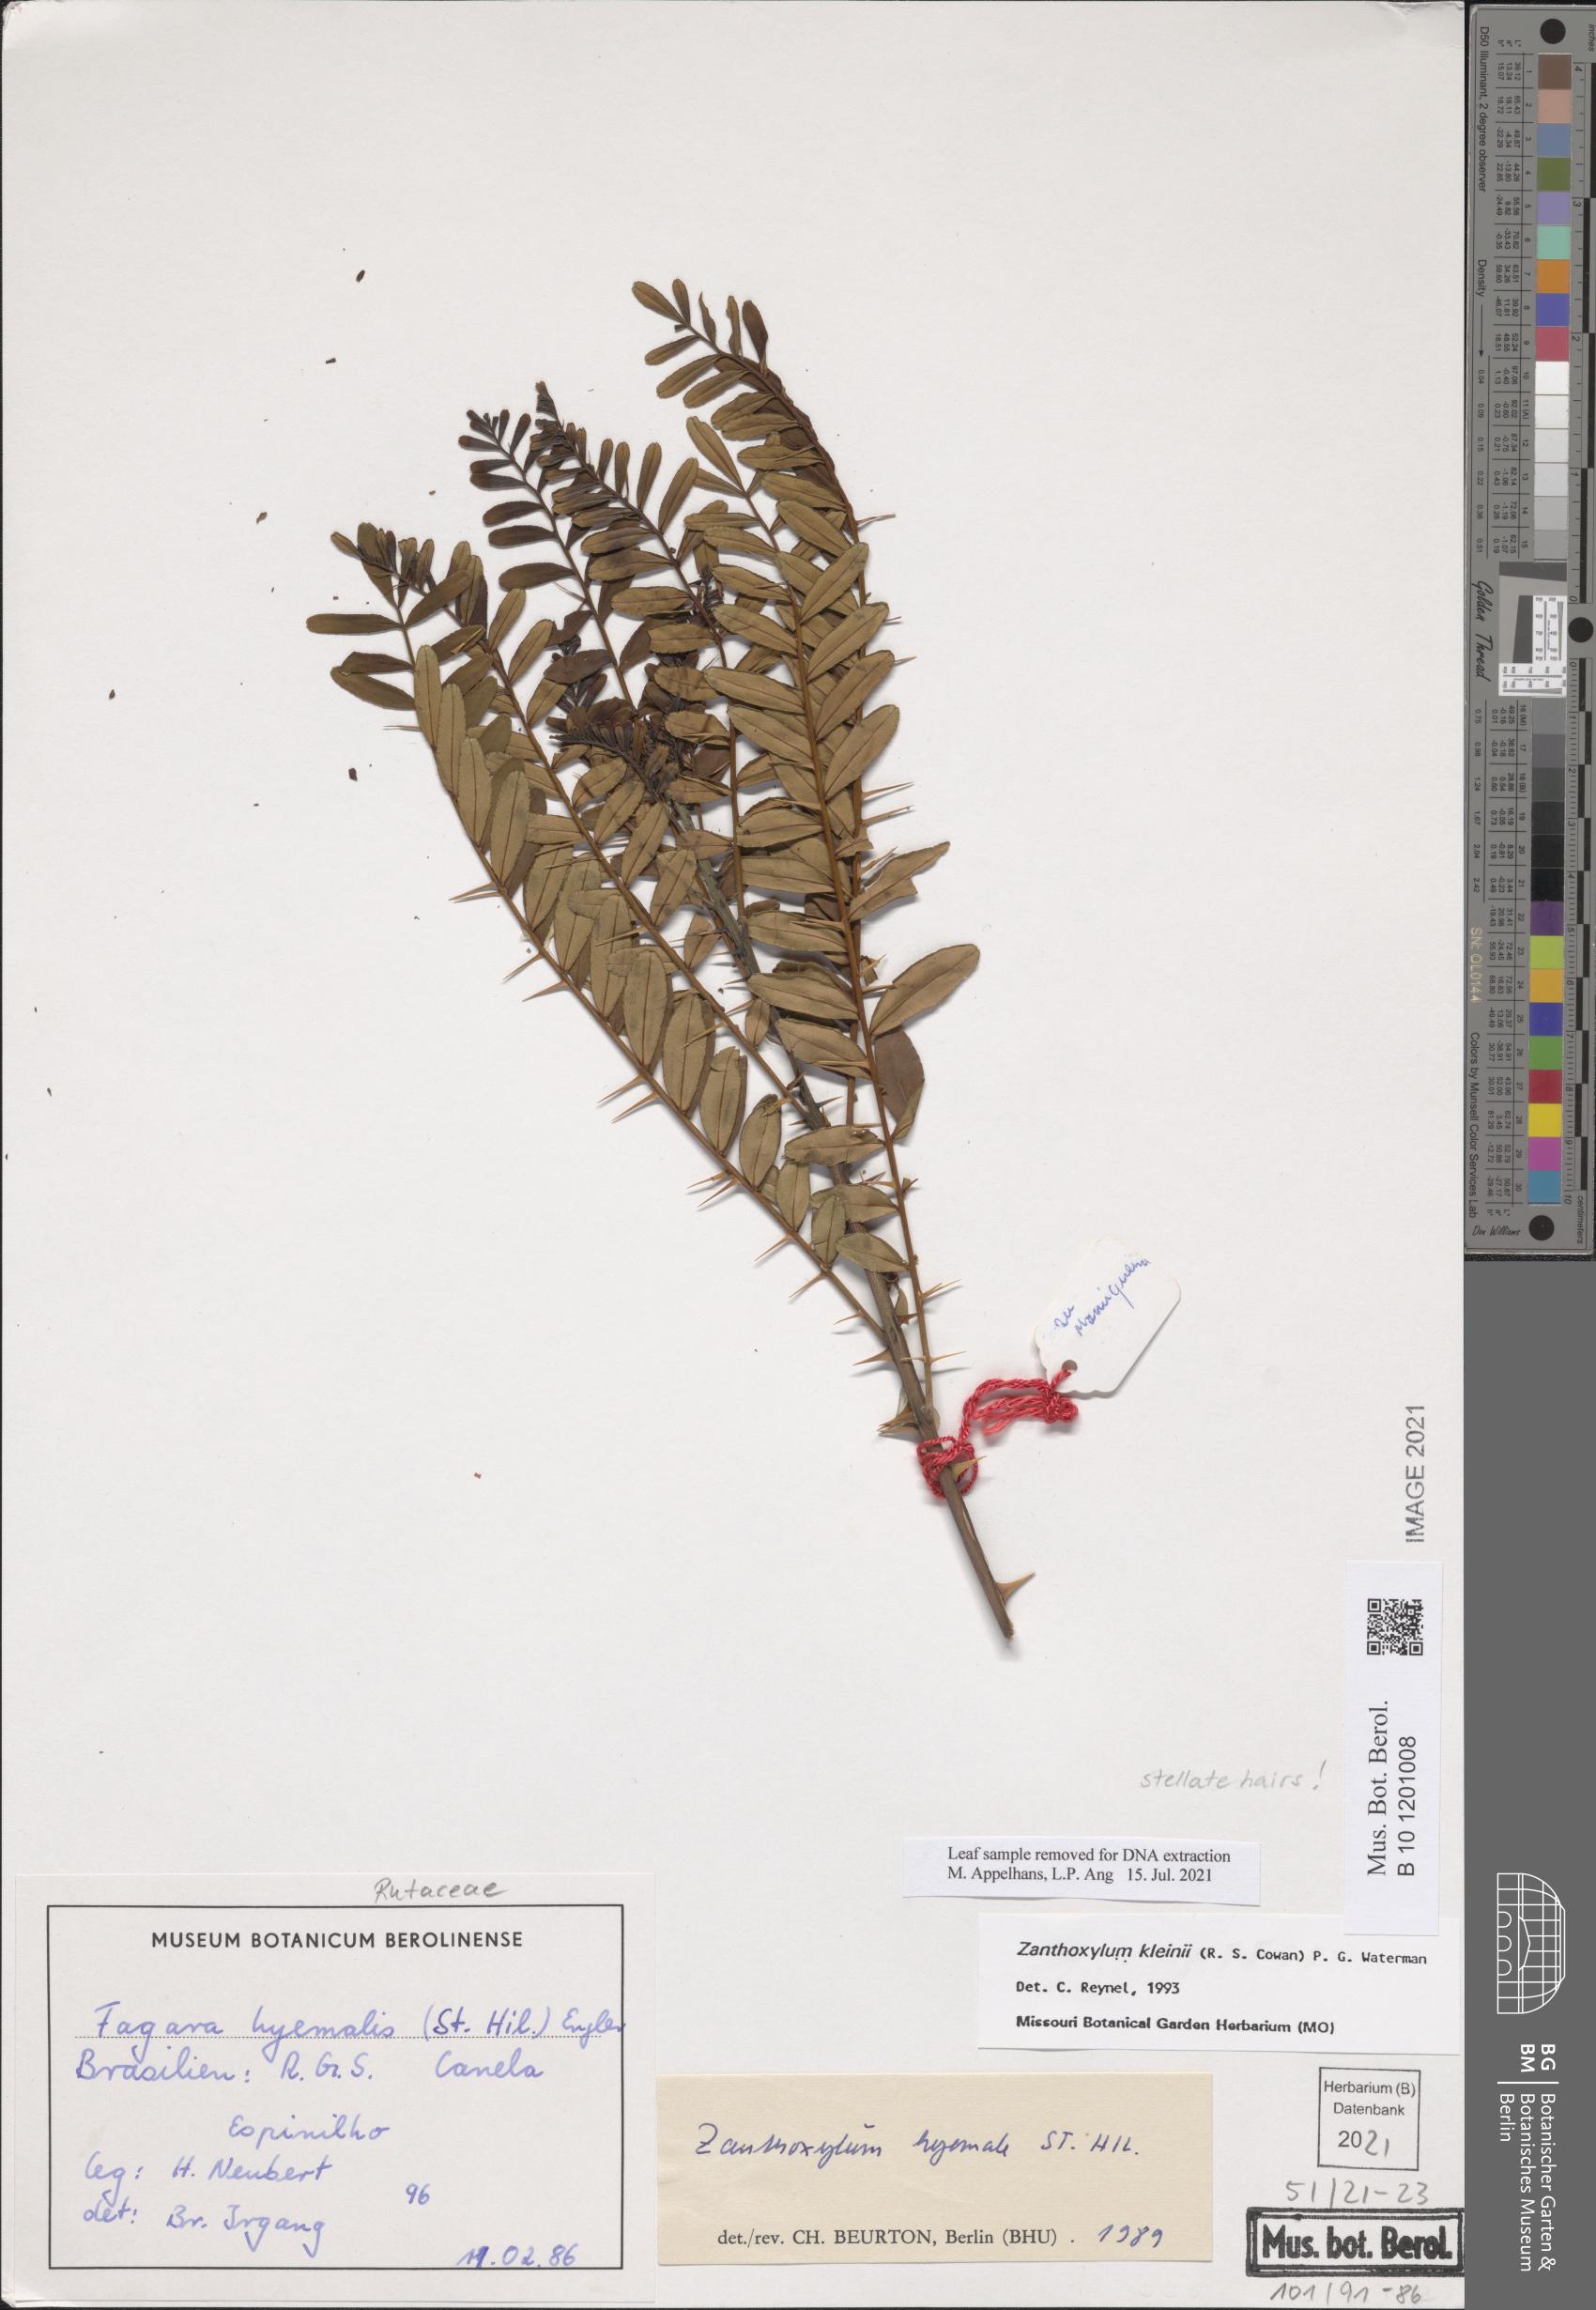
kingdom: Plantae
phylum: Tracheophyta
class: Magnoliopsida
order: Sapindales
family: Rutaceae
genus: Zanthoxylum
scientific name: Zanthoxylum kleinii
